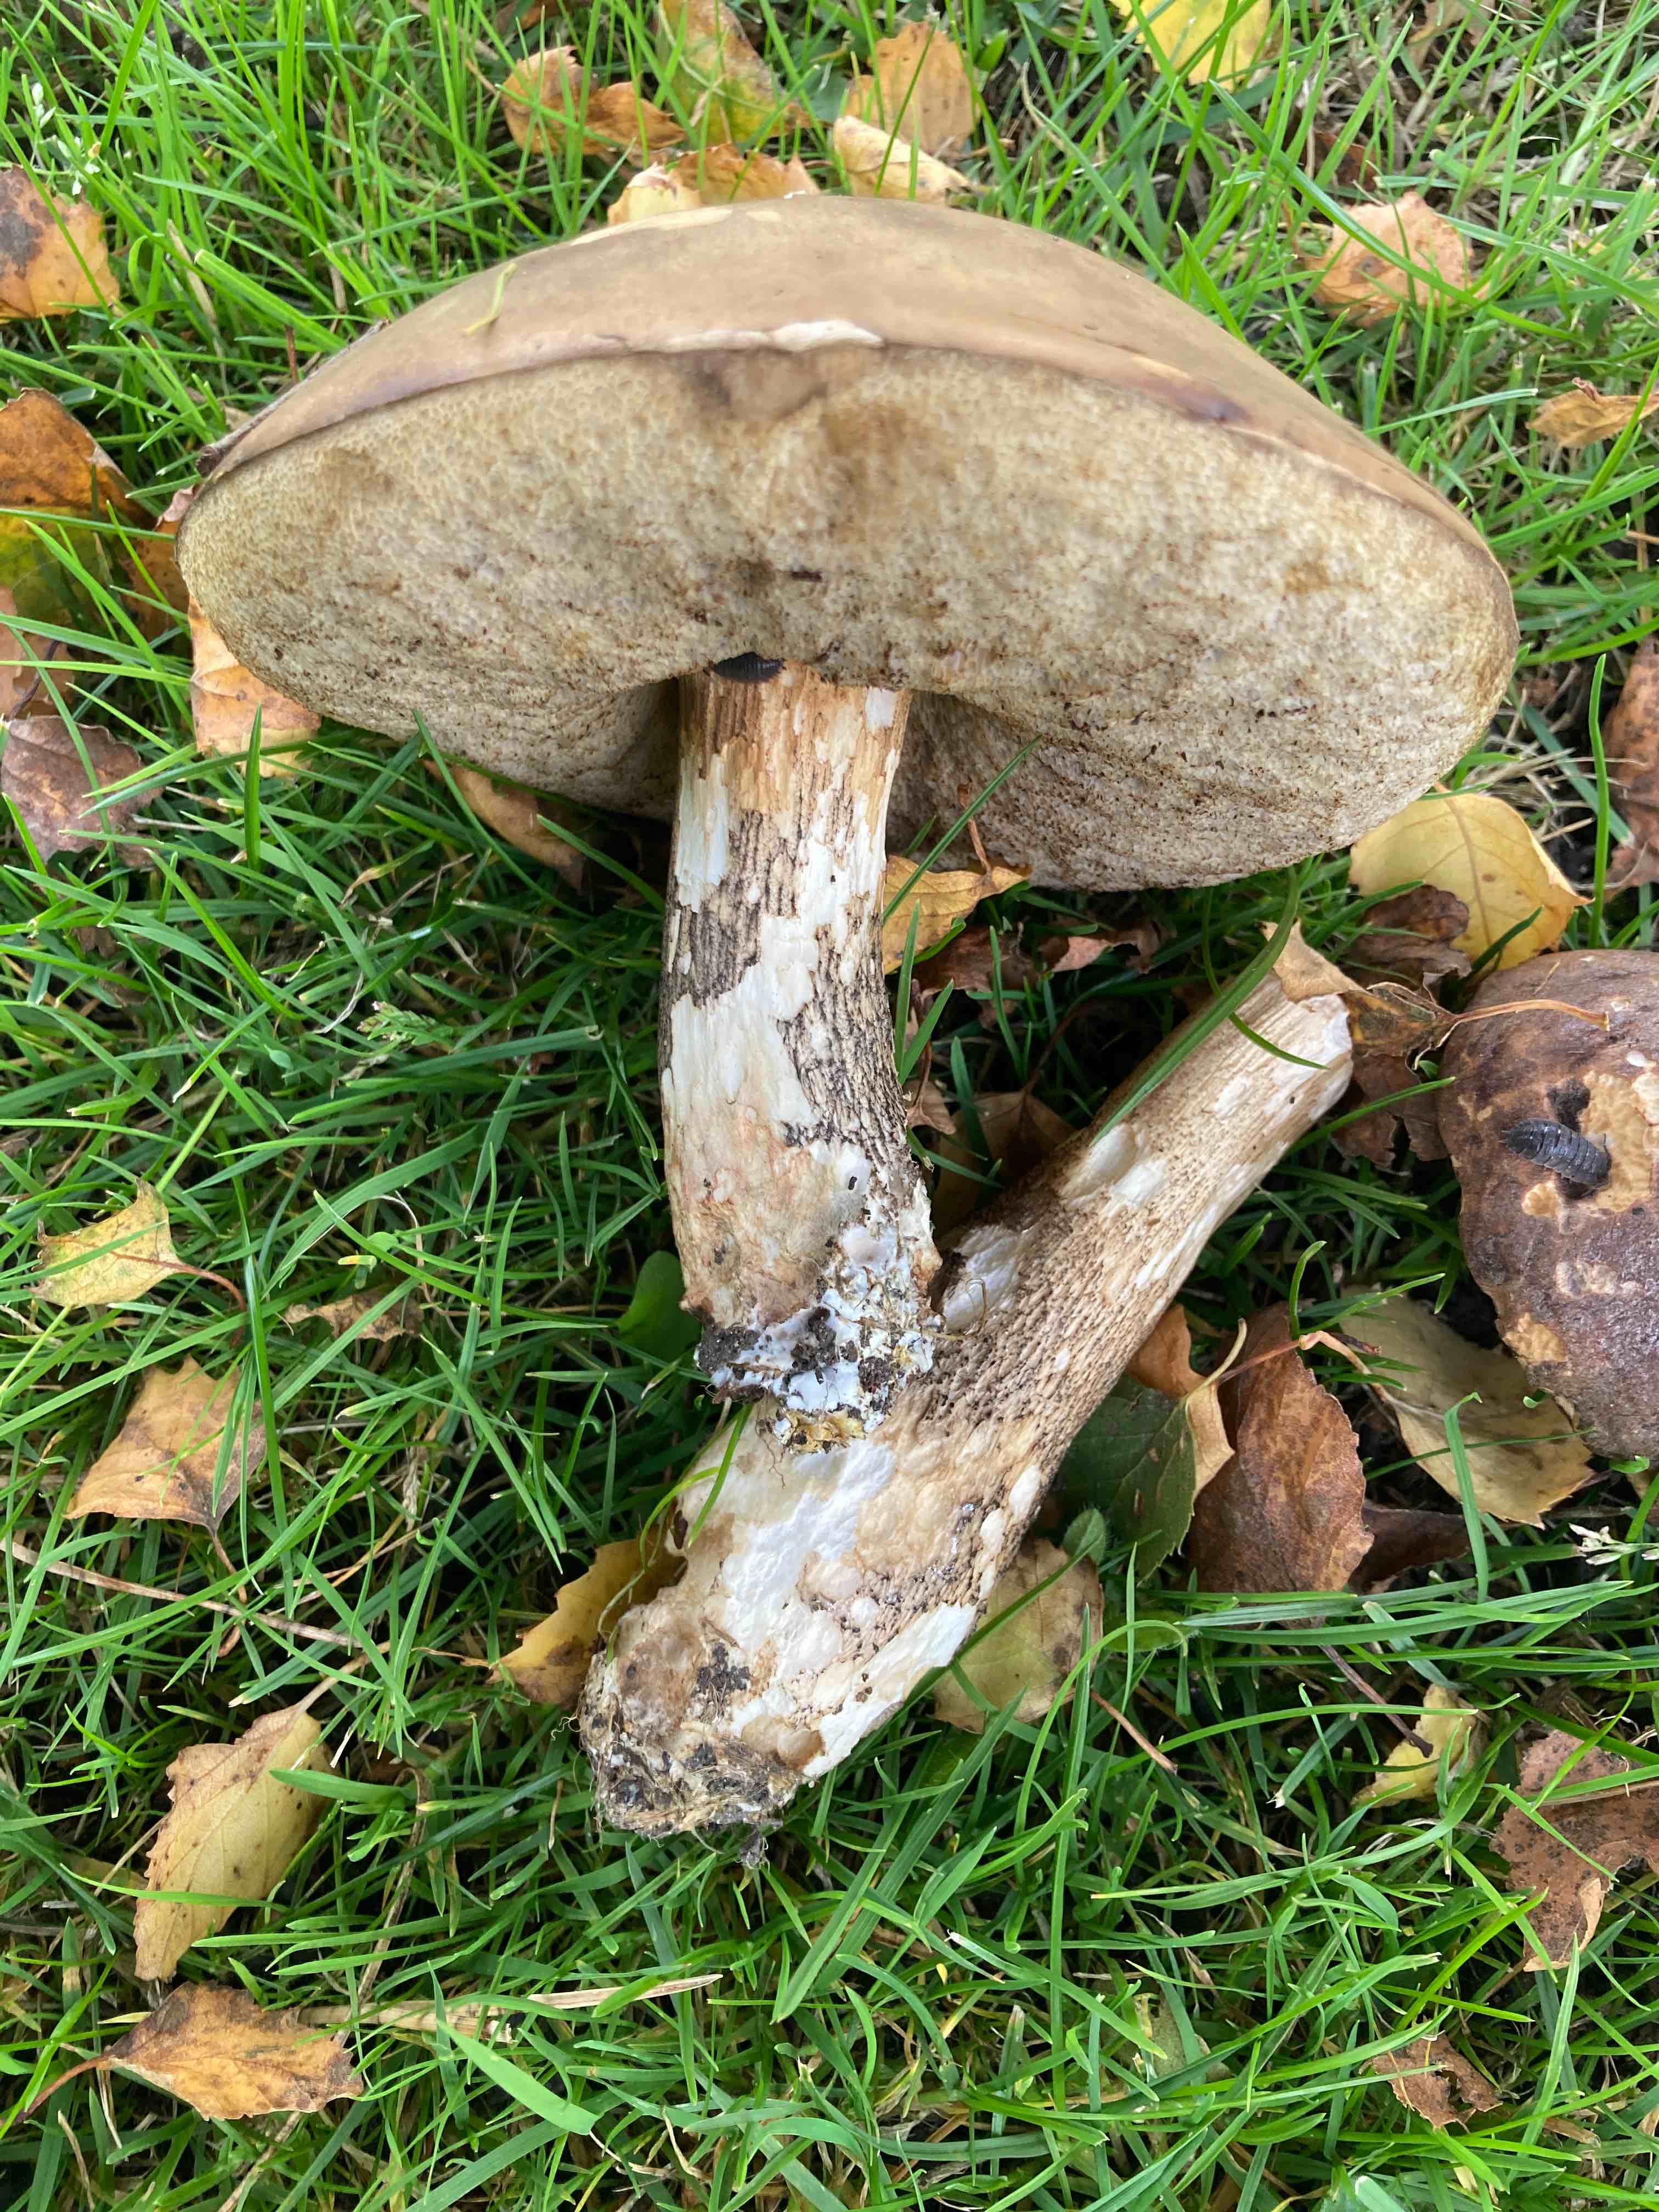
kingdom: Fungi
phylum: Basidiomycota
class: Agaricomycetes
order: Boletales
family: Boletaceae
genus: Leccinum
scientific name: Leccinum scabrum
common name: brun skælrørhat
